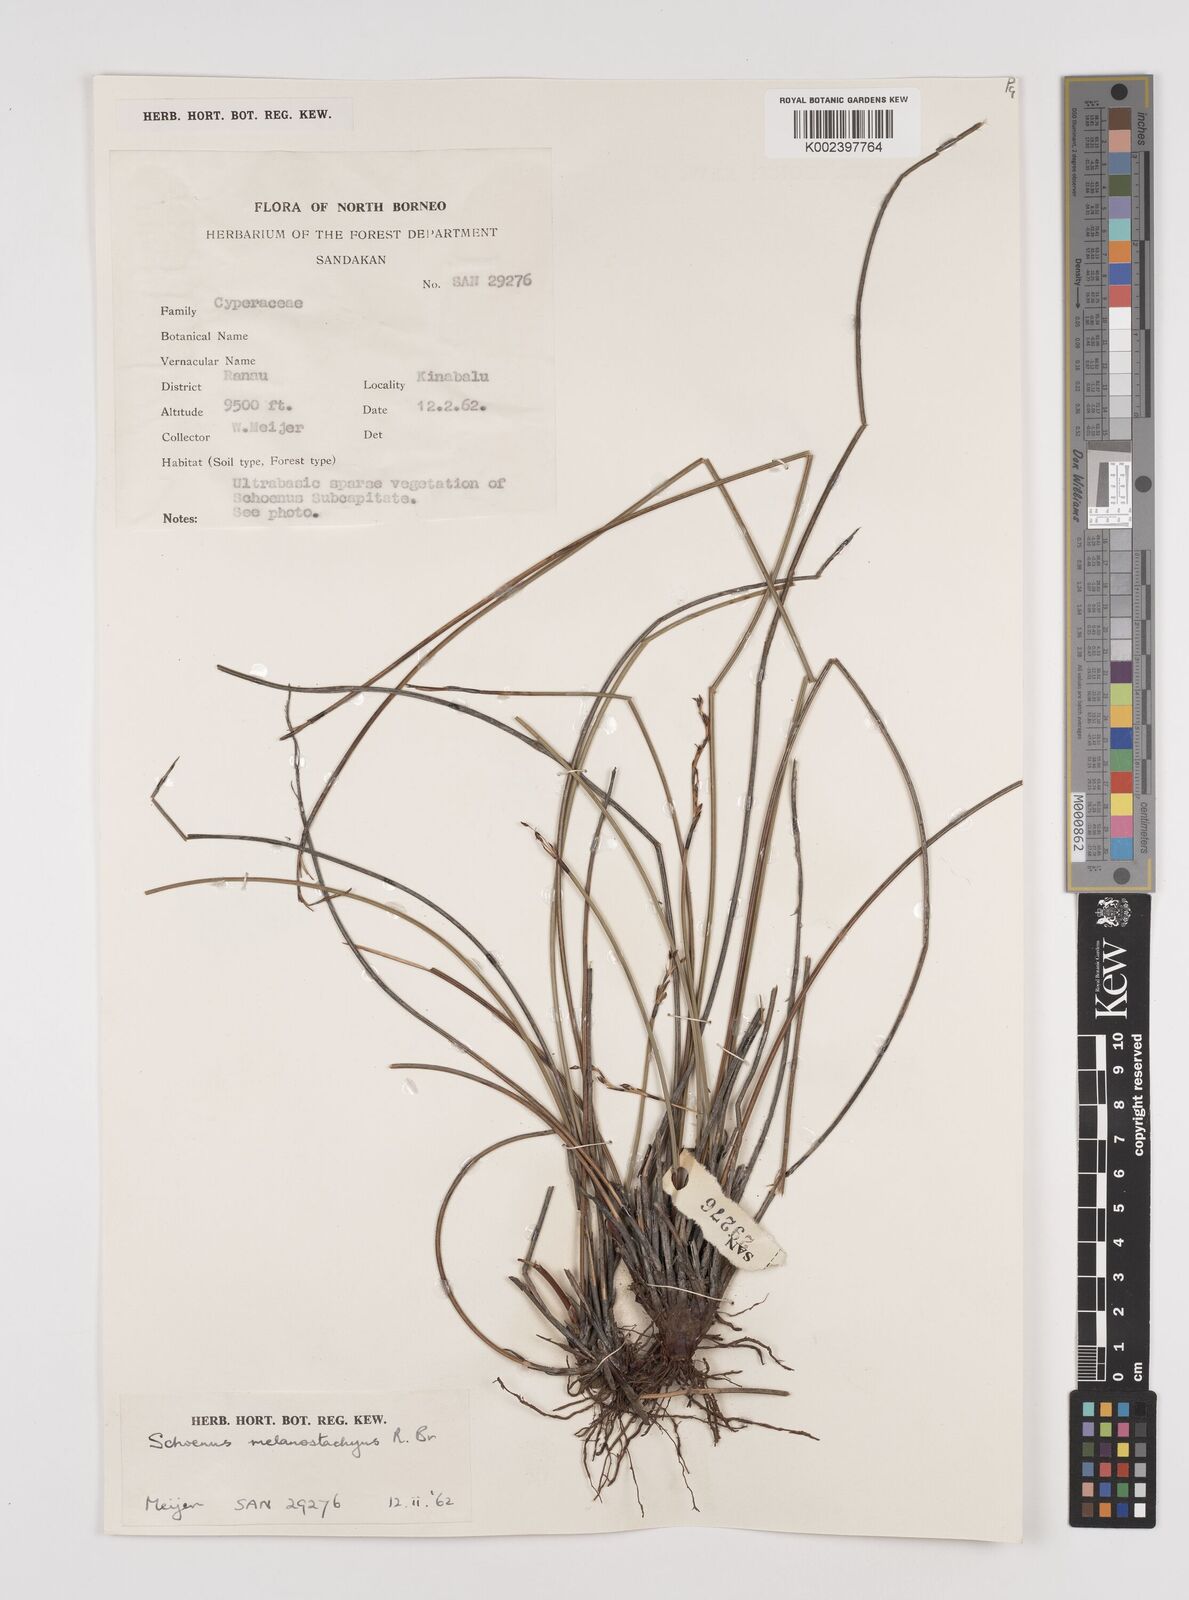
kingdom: Plantae
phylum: Tracheophyta
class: Liliopsida
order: Poales
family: Cyperaceae
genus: Schoenus
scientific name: Schoenus melanostachys
